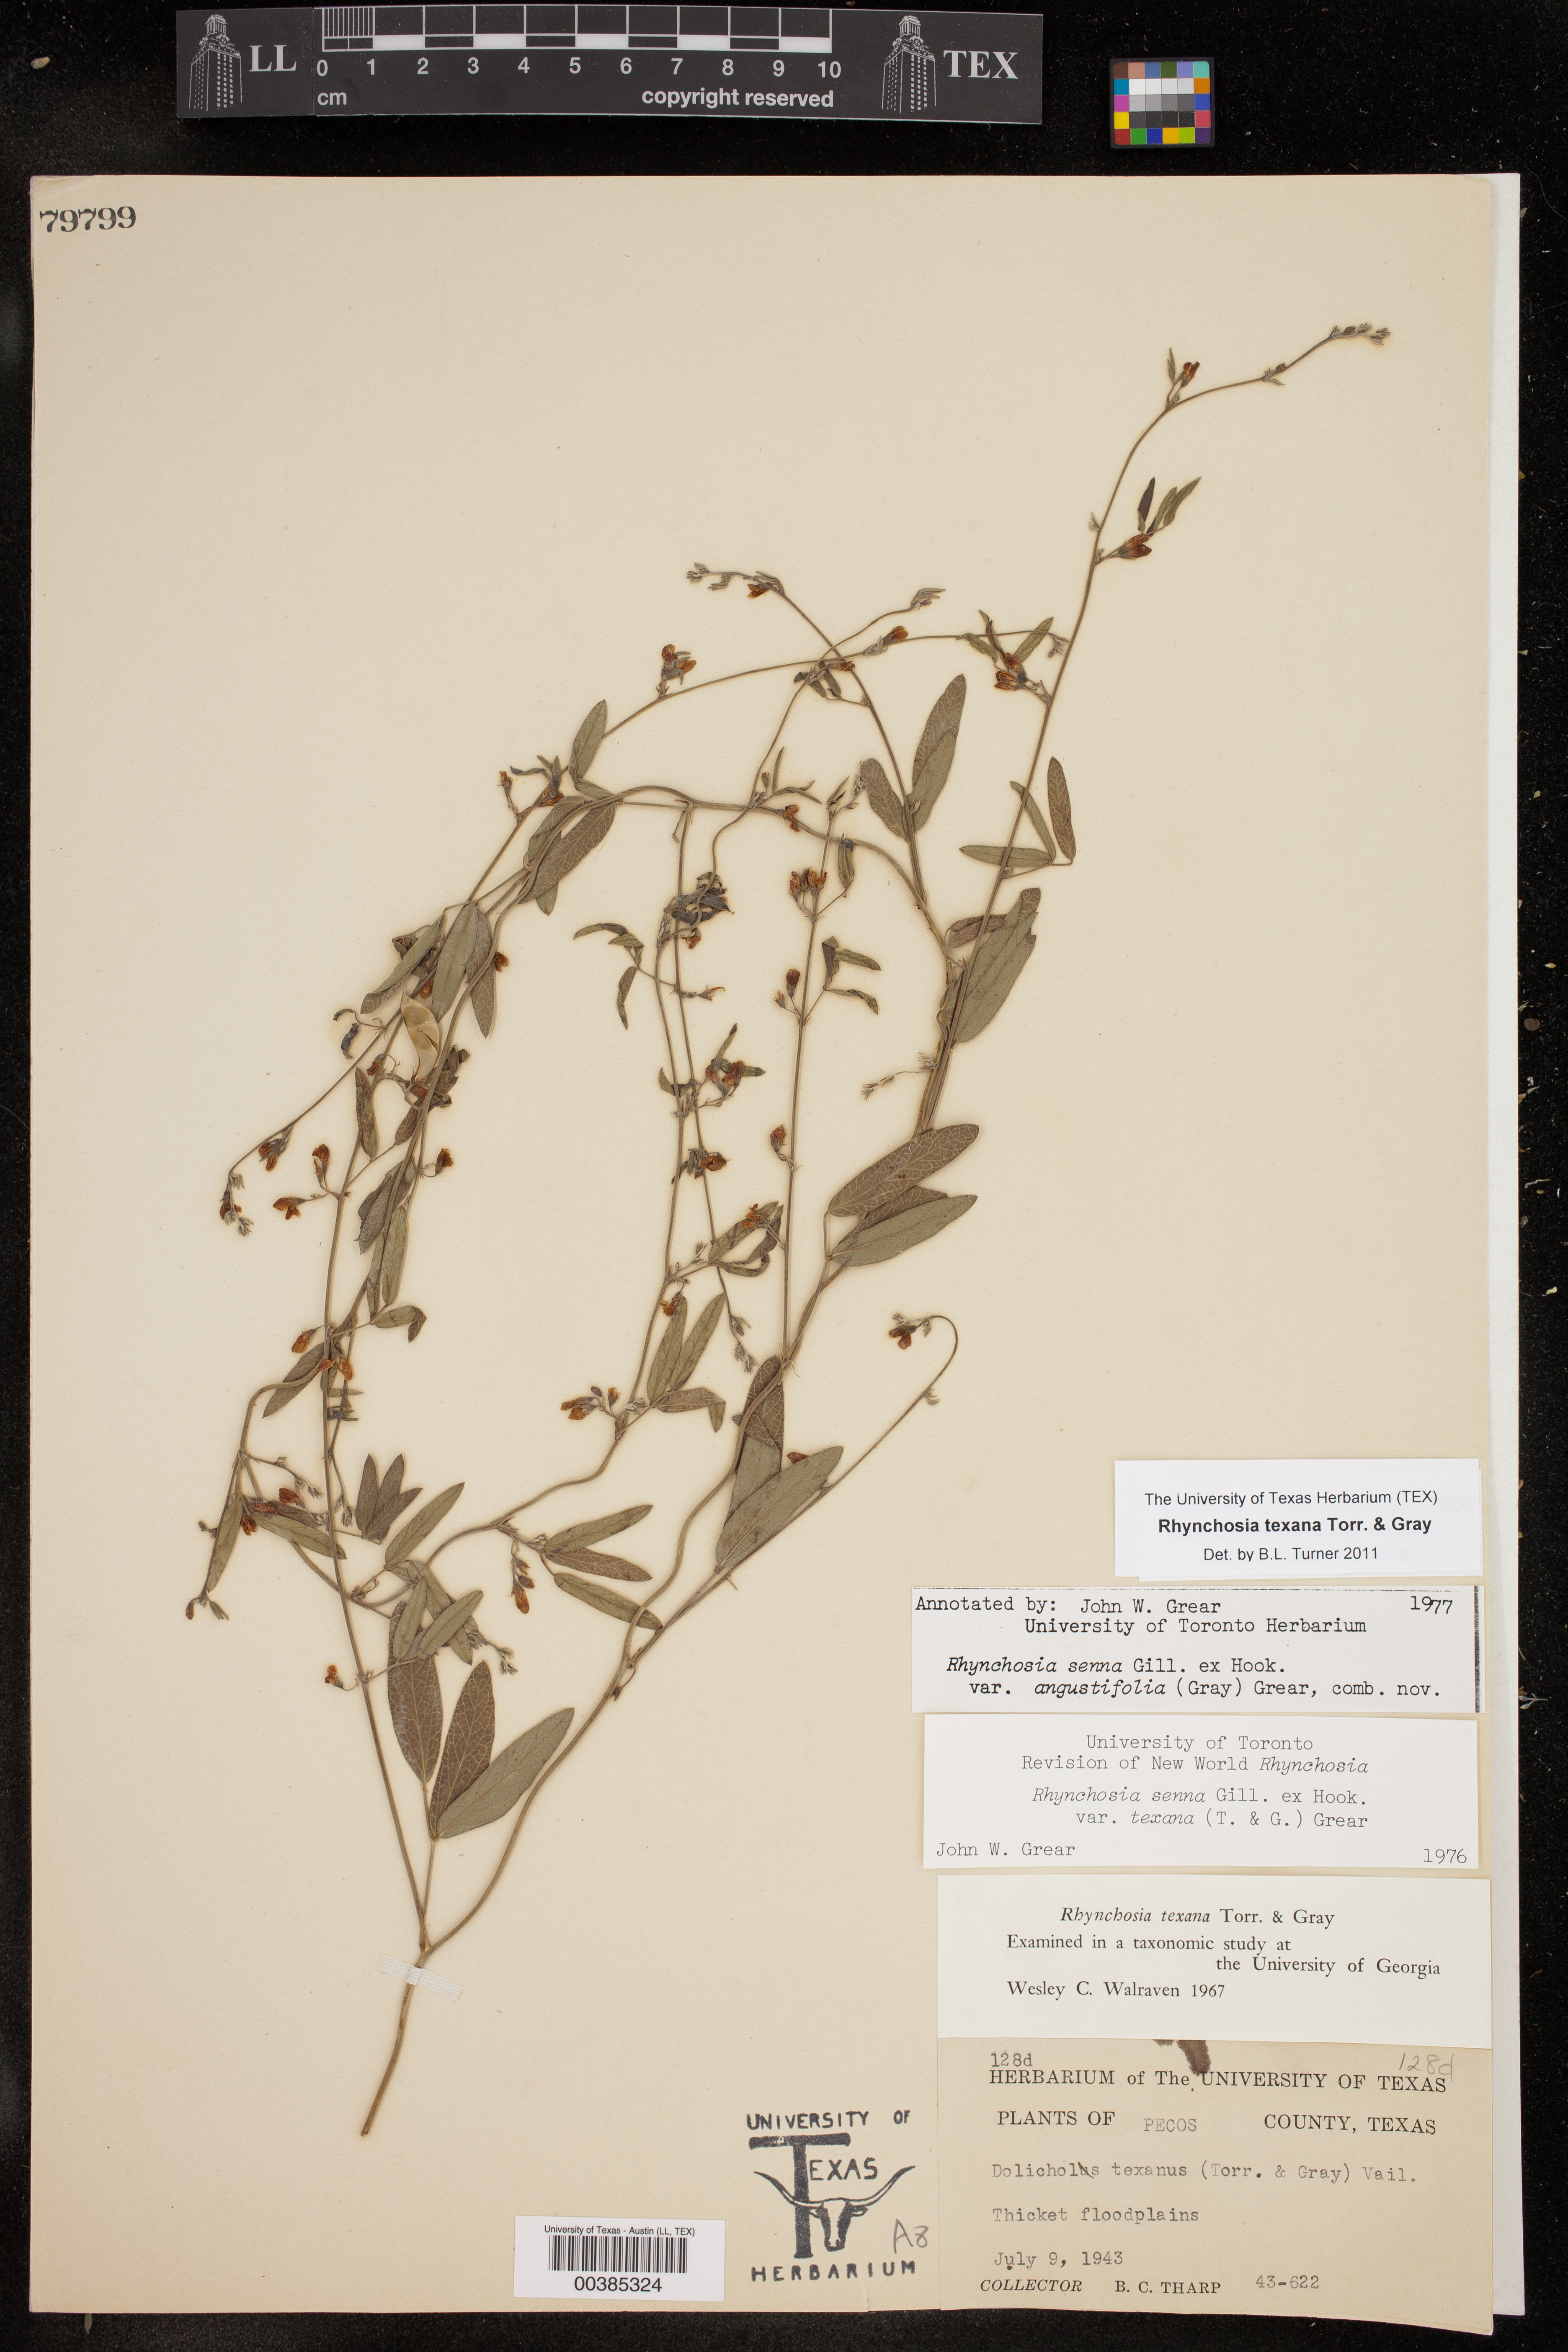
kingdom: Plantae
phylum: Tracheophyta
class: Magnoliopsida
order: Fabales
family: Fabaceae
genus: Rhynchosia
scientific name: Rhynchosia senna
